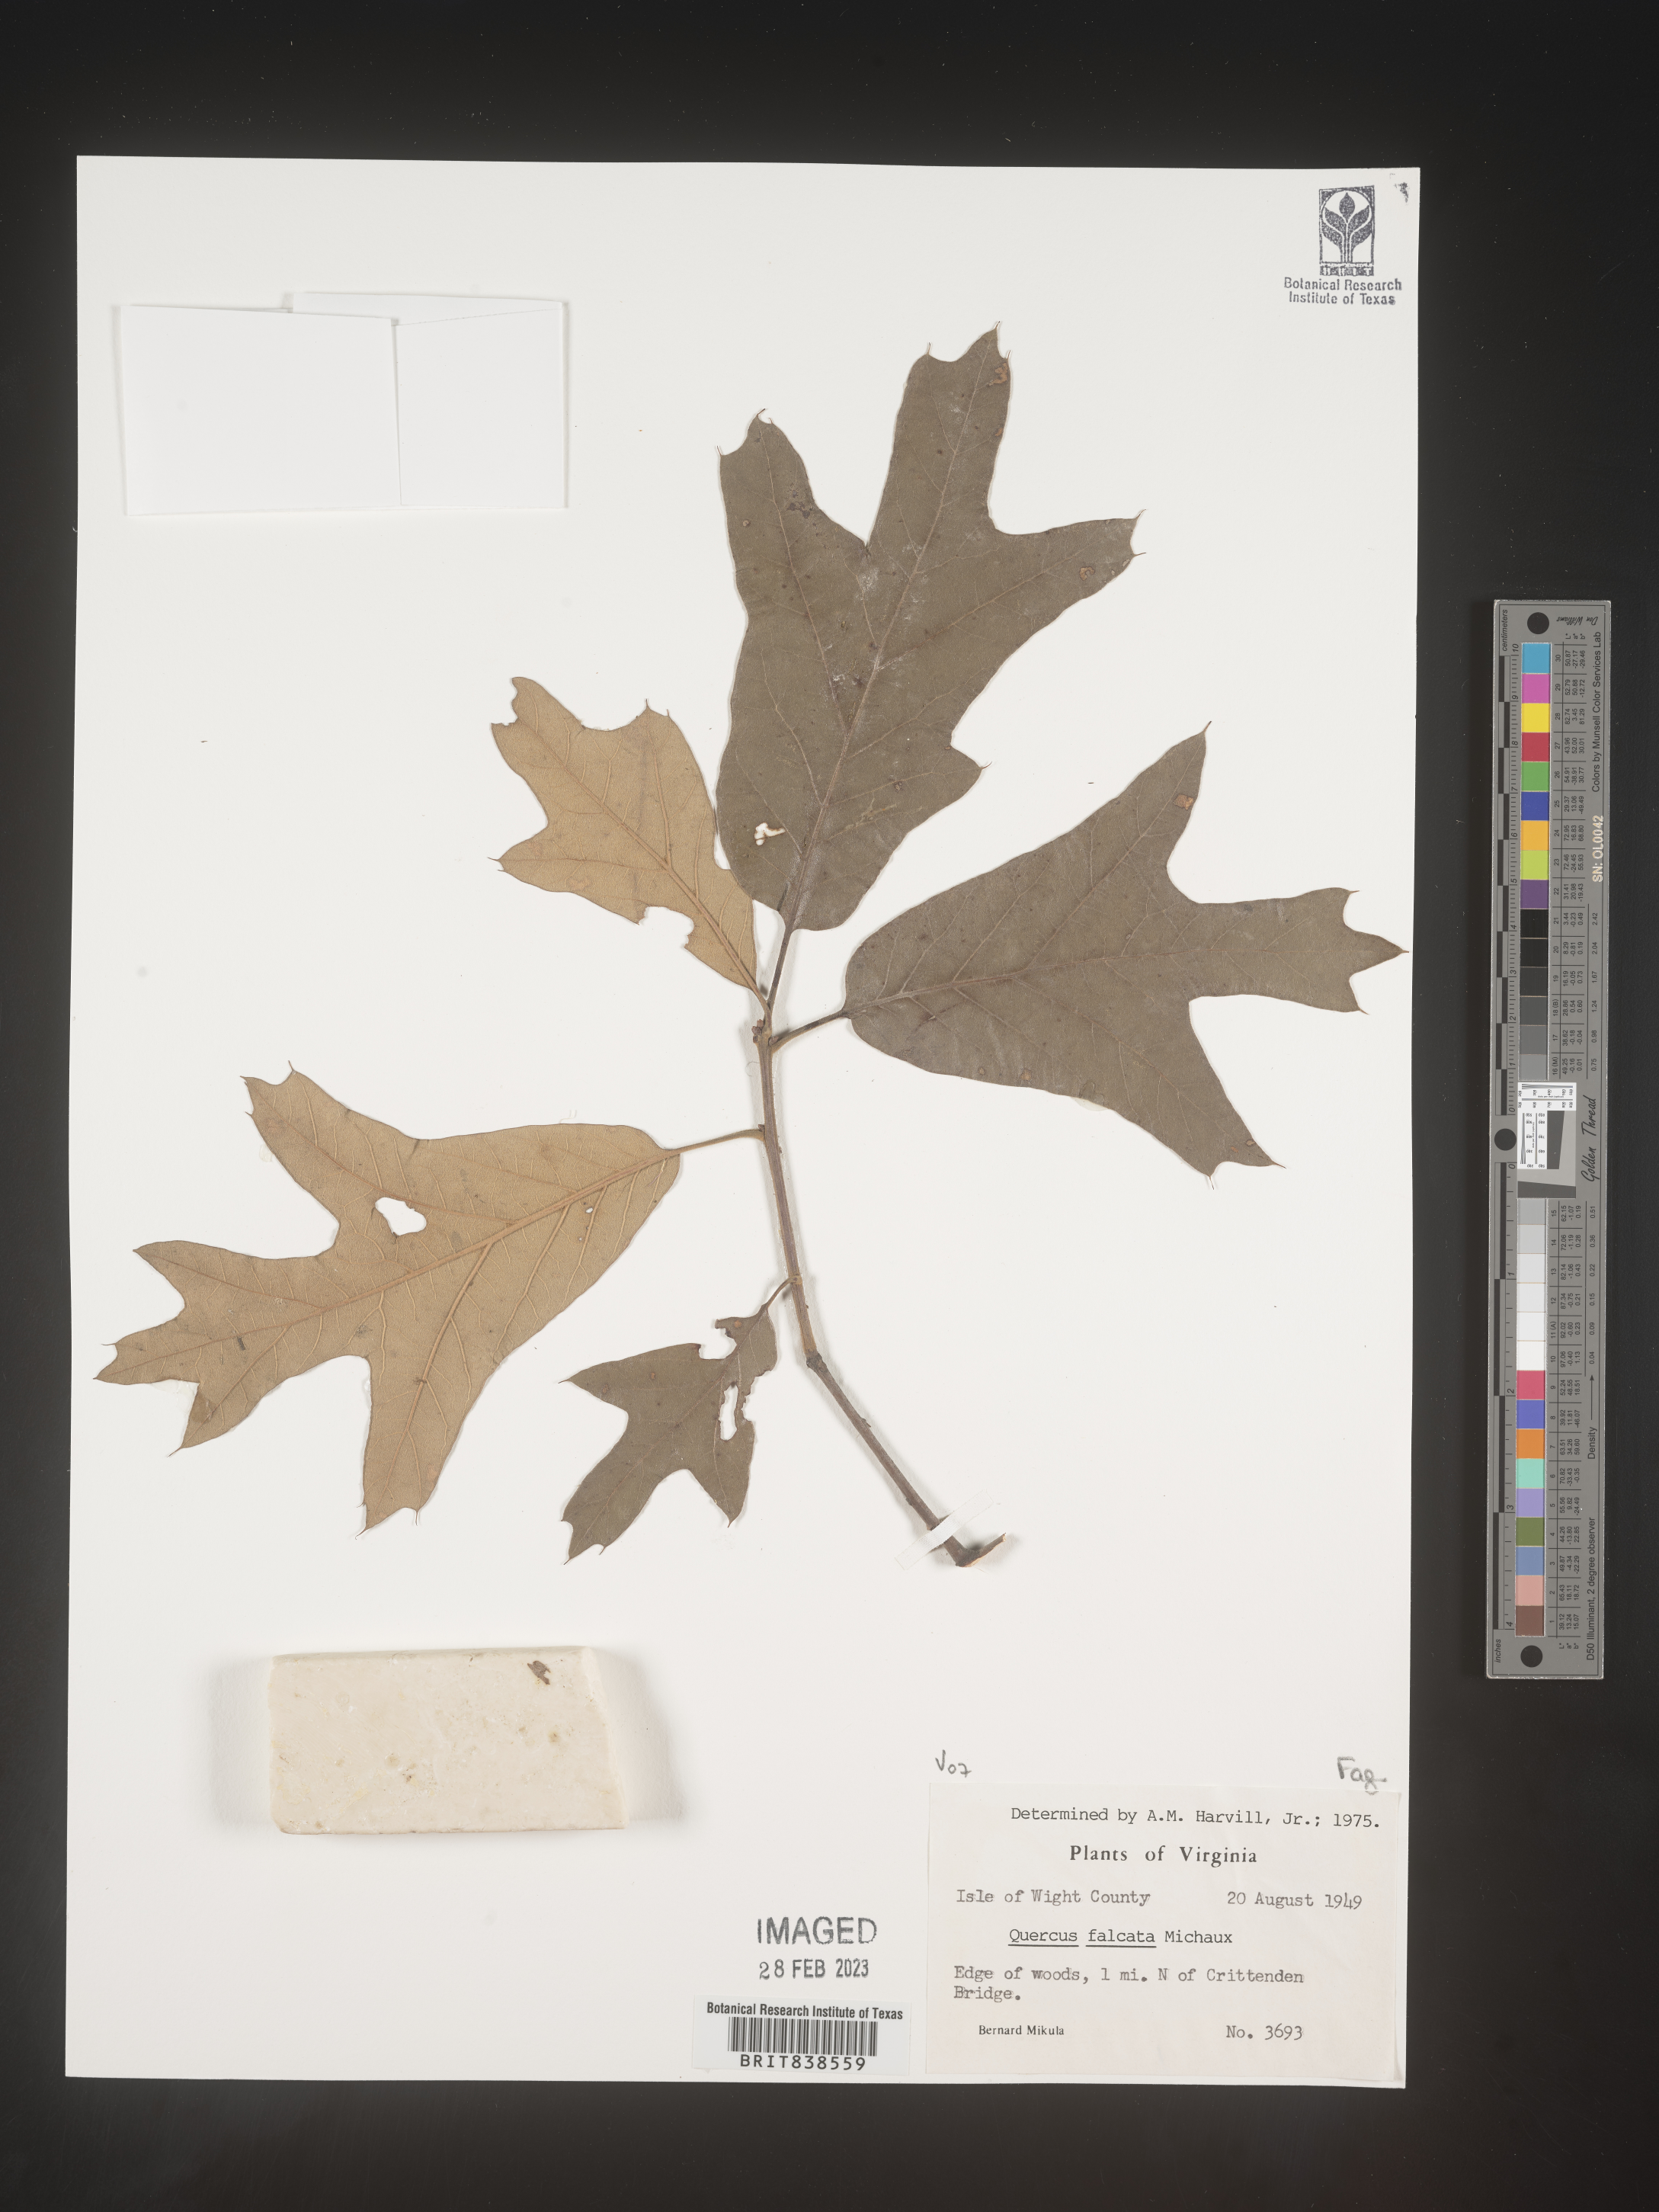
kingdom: Plantae
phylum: Tracheophyta
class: Magnoliopsida
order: Fagales
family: Fagaceae
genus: Quercus
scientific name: Quercus falcata
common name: Southern red oak
